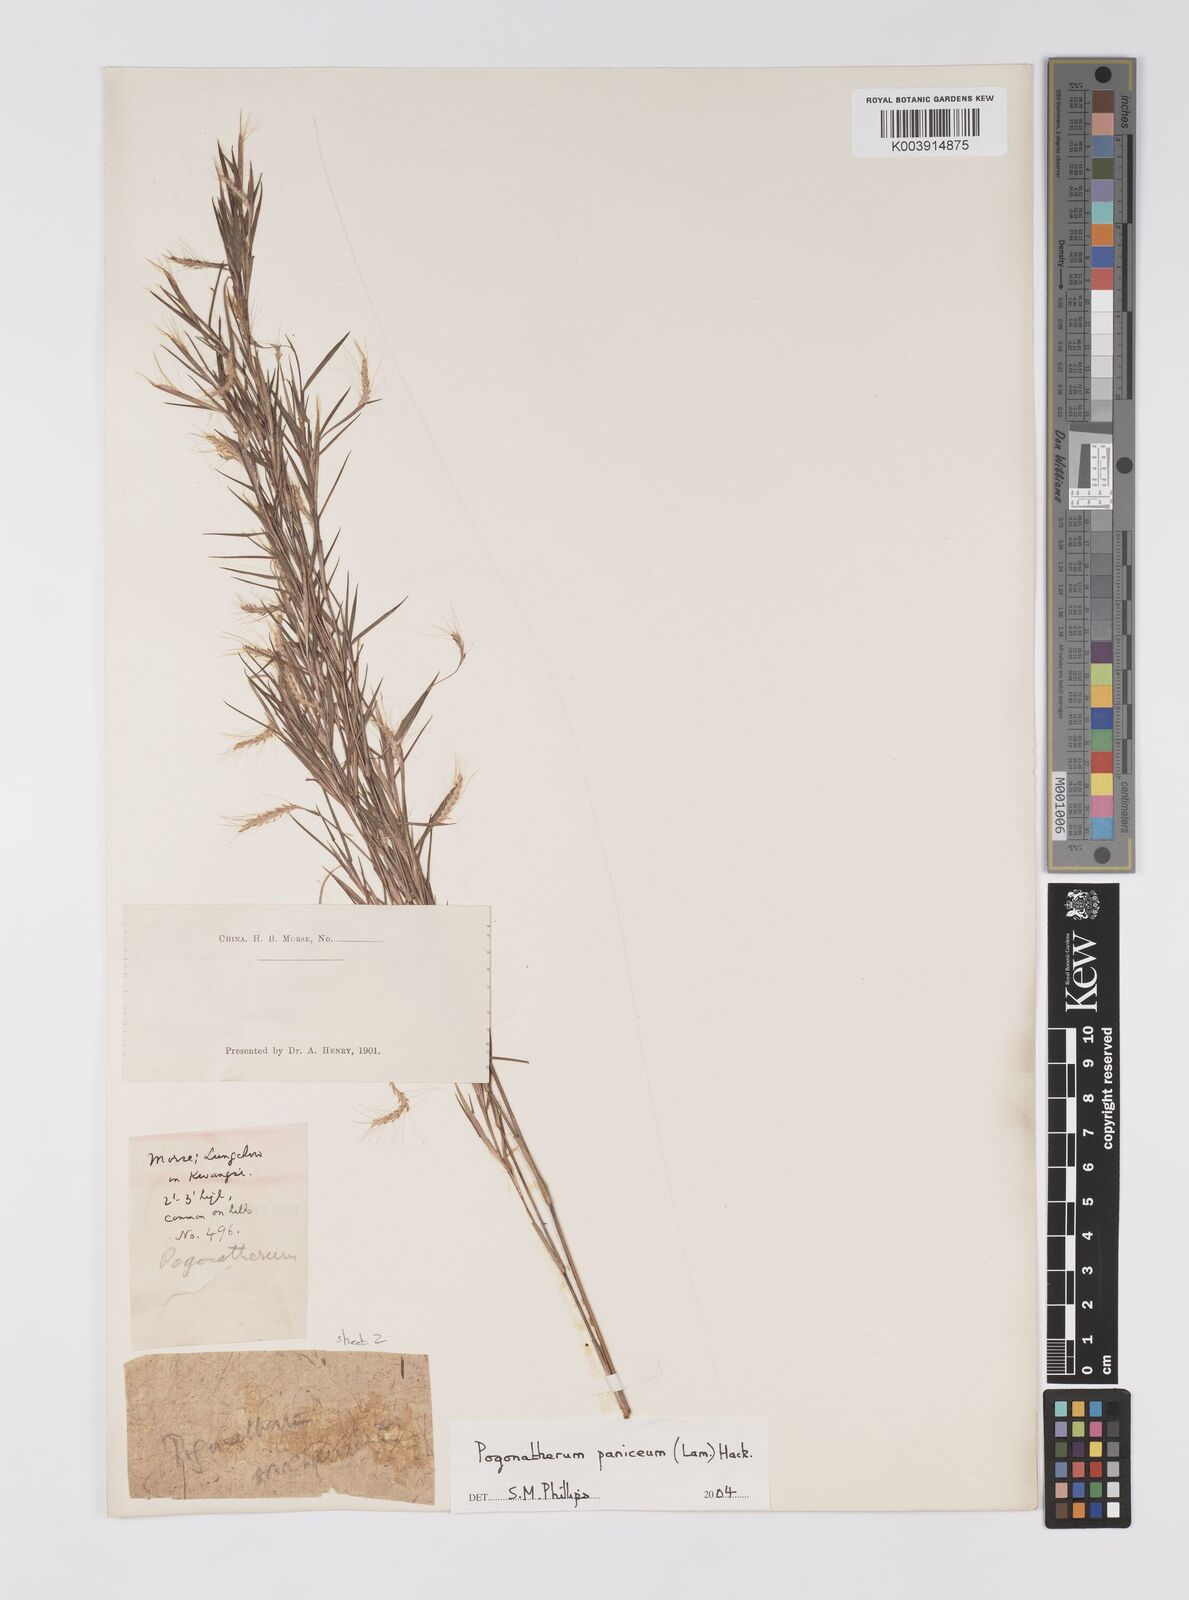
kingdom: Plantae
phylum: Tracheophyta
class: Liliopsida
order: Poales
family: Poaceae
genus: Pogonatherum
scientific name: Pogonatherum paniceum
